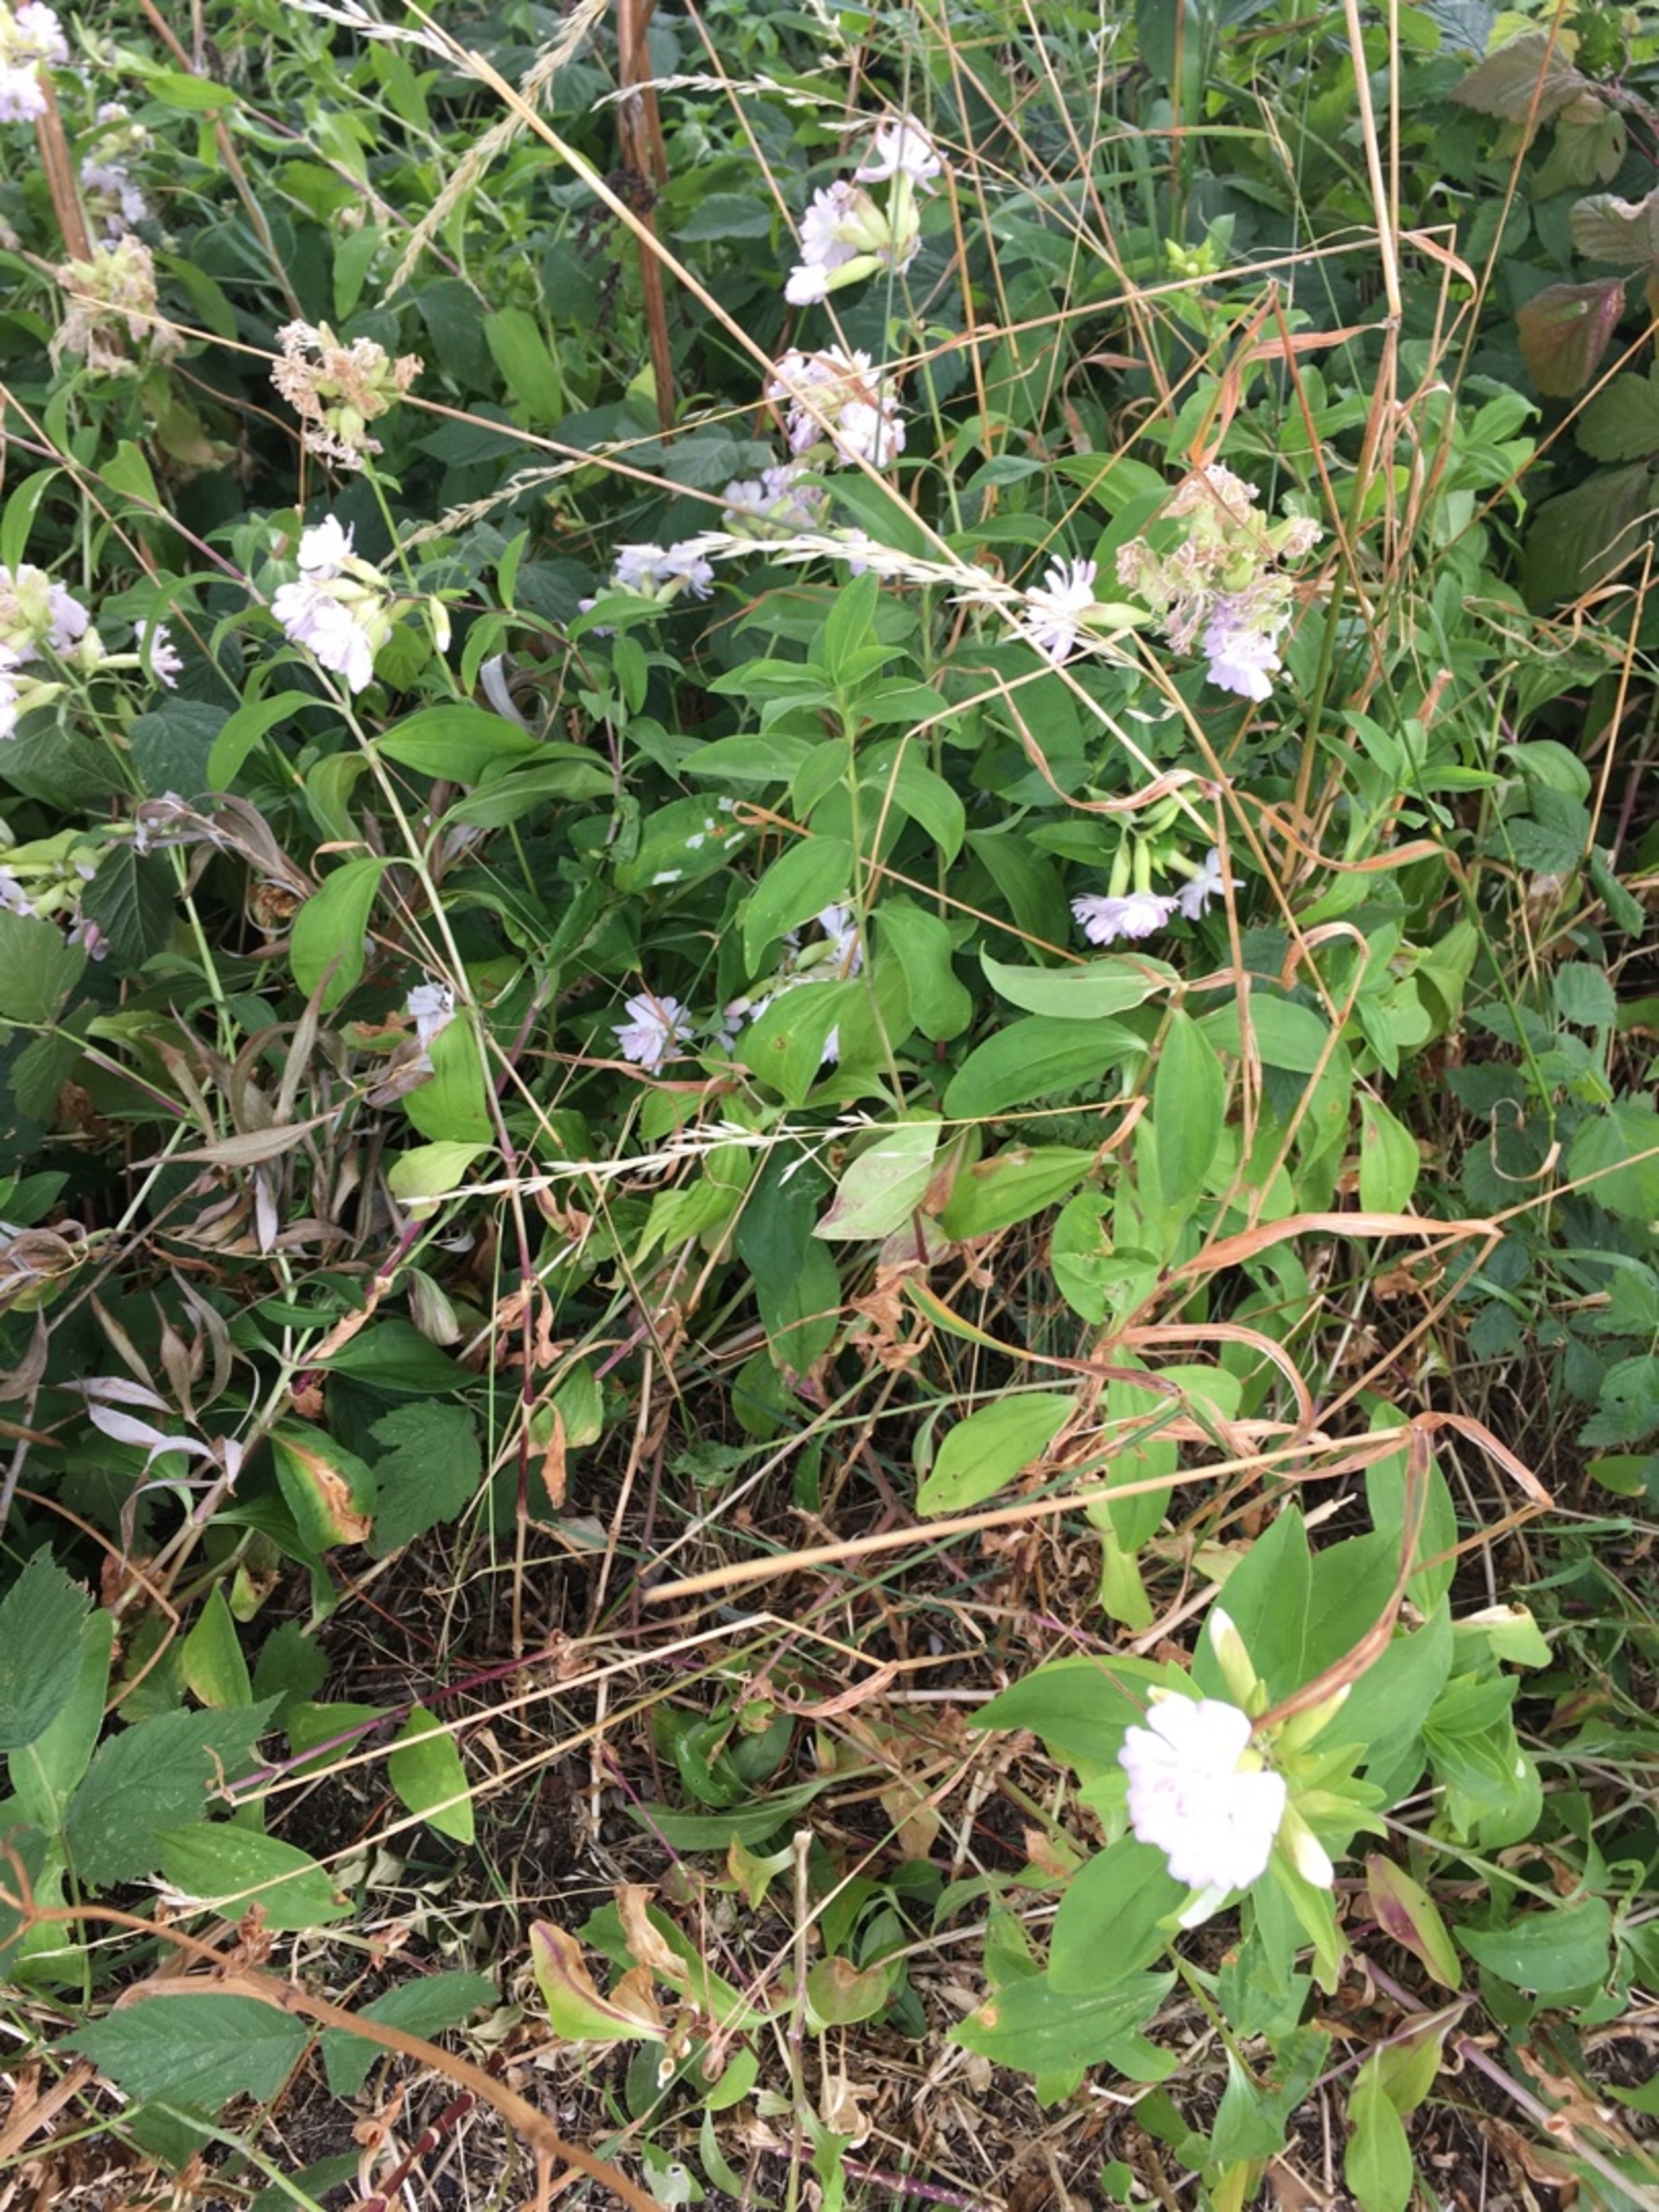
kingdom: Plantae
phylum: Tracheophyta
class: Magnoliopsida
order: Caryophyllales
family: Caryophyllaceae
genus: Saponaria
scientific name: Saponaria officinalis
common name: Sæbeurt
